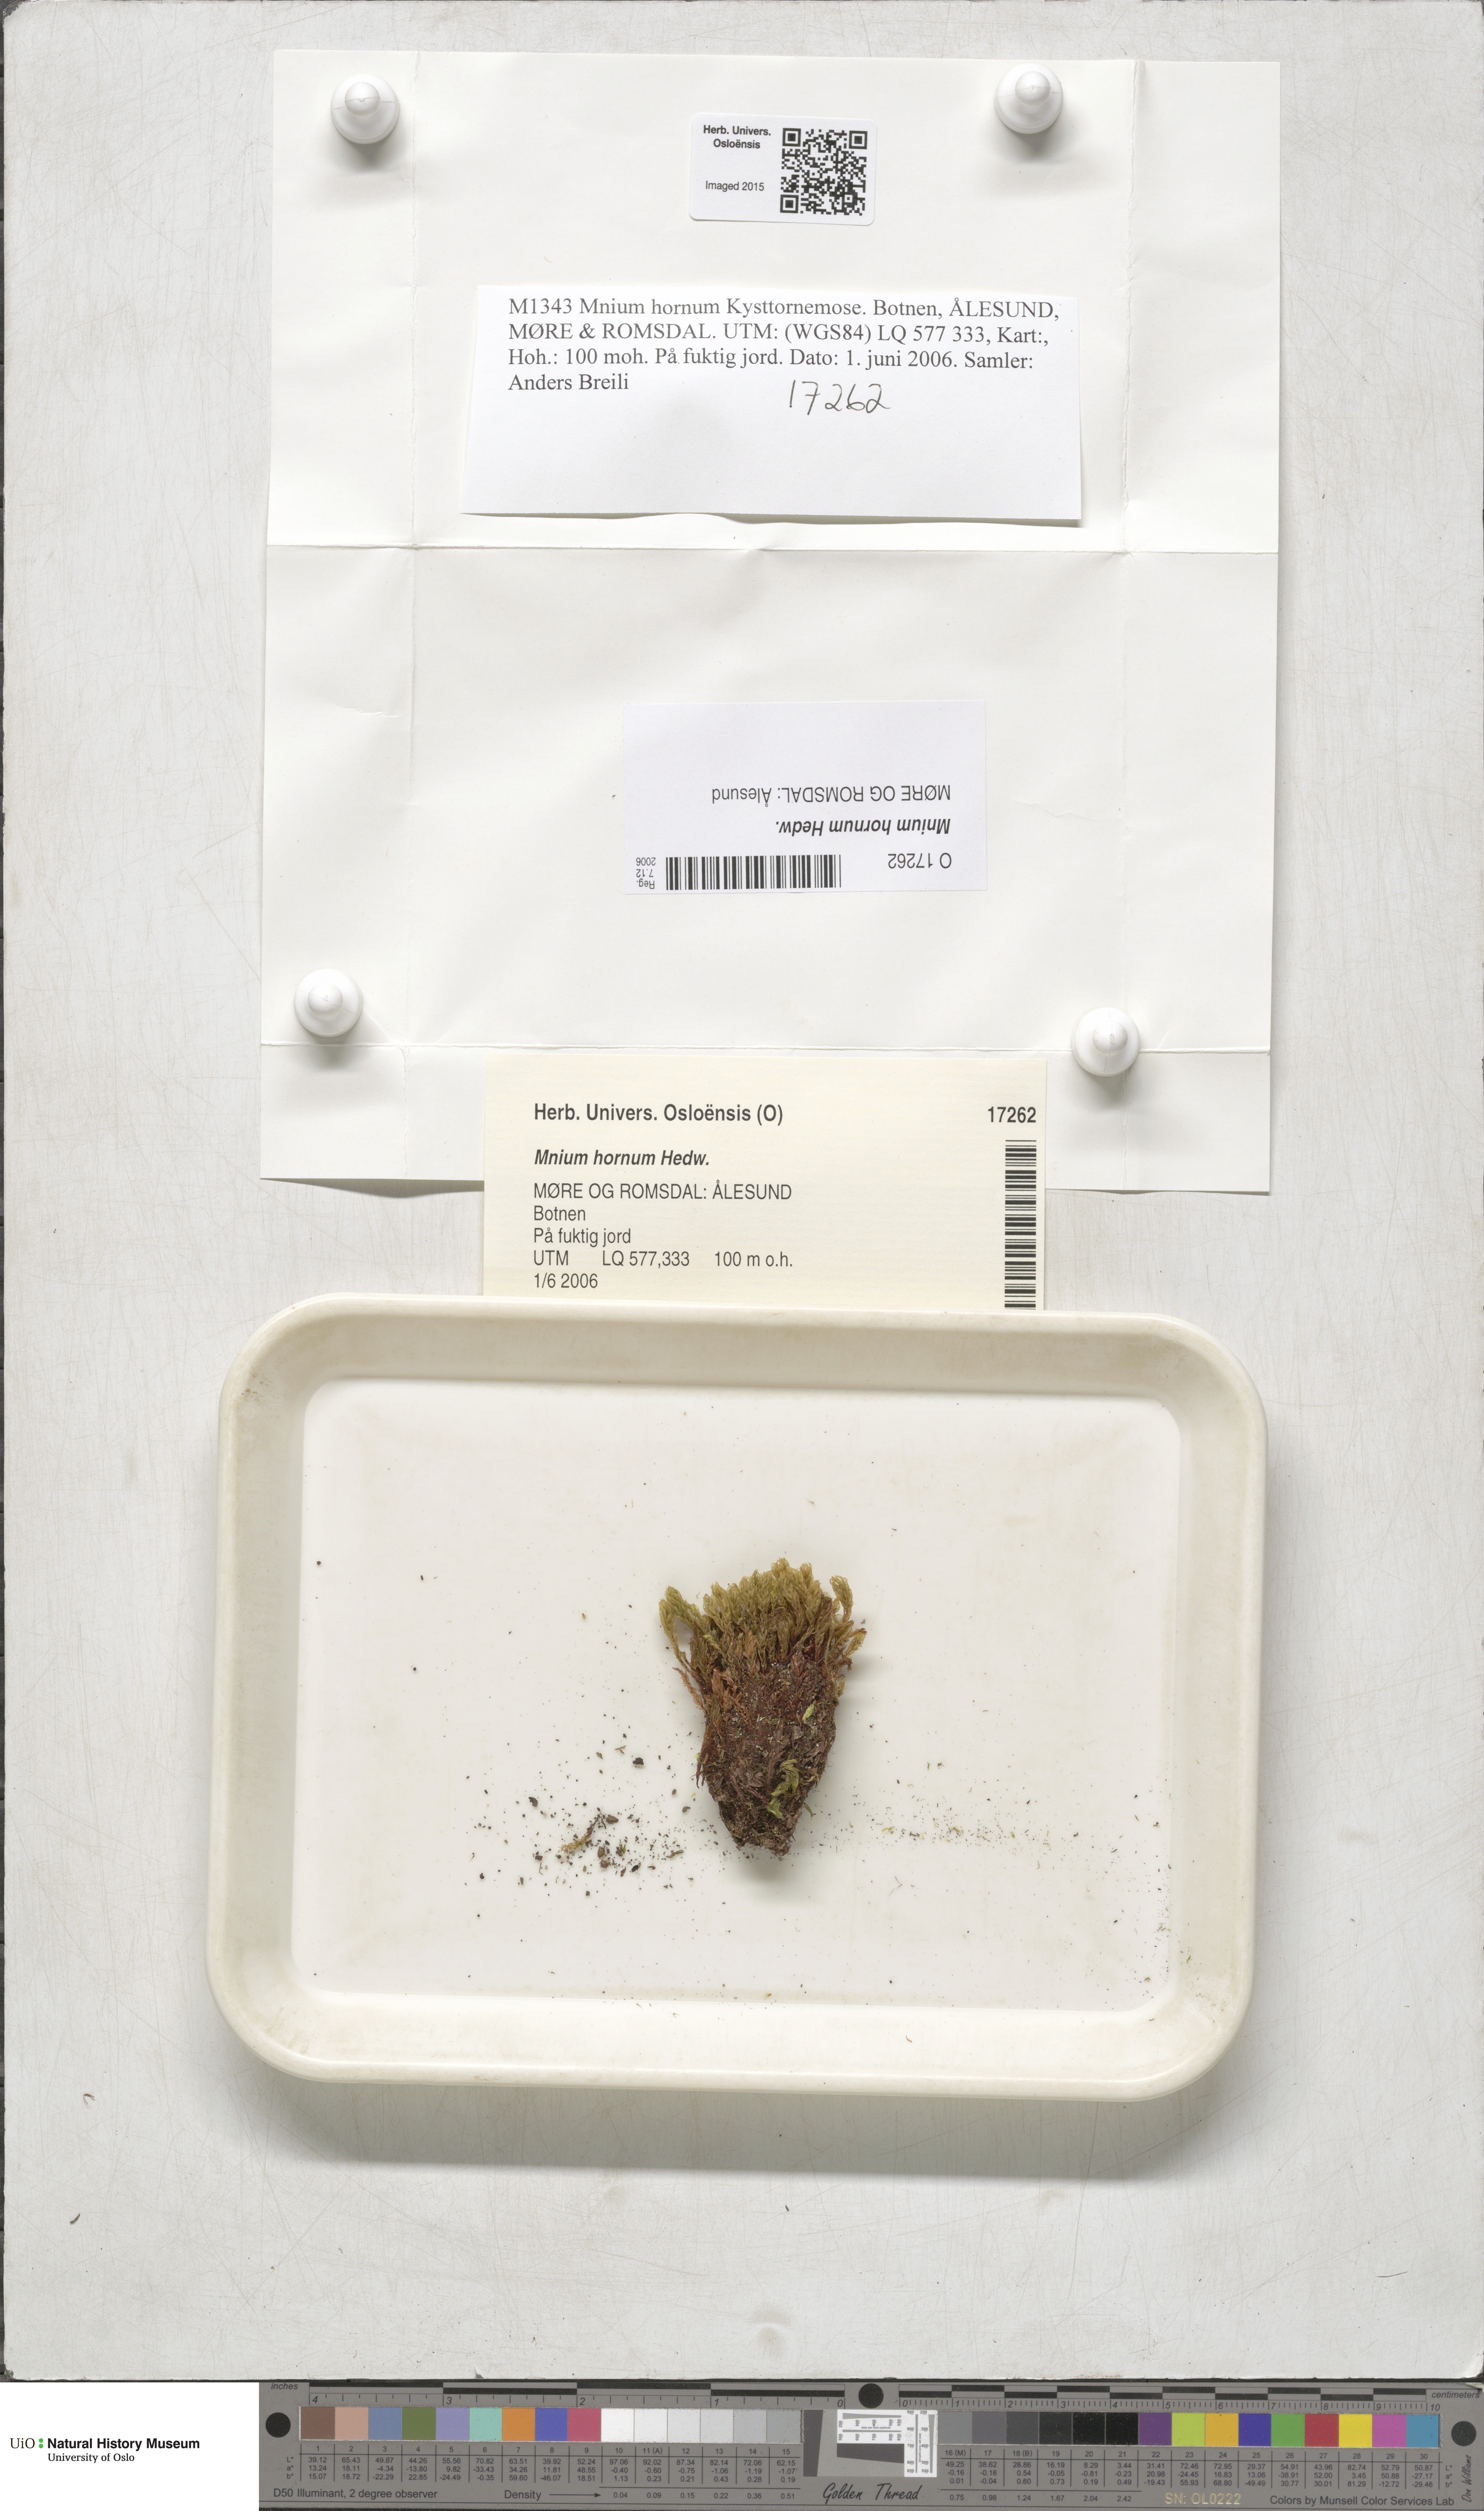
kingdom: Plantae
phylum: Bryophyta
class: Bryopsida
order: Bryales
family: Mniaceae
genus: Mnium
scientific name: Mnium hornum
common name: Swan's-neck leafy moss
